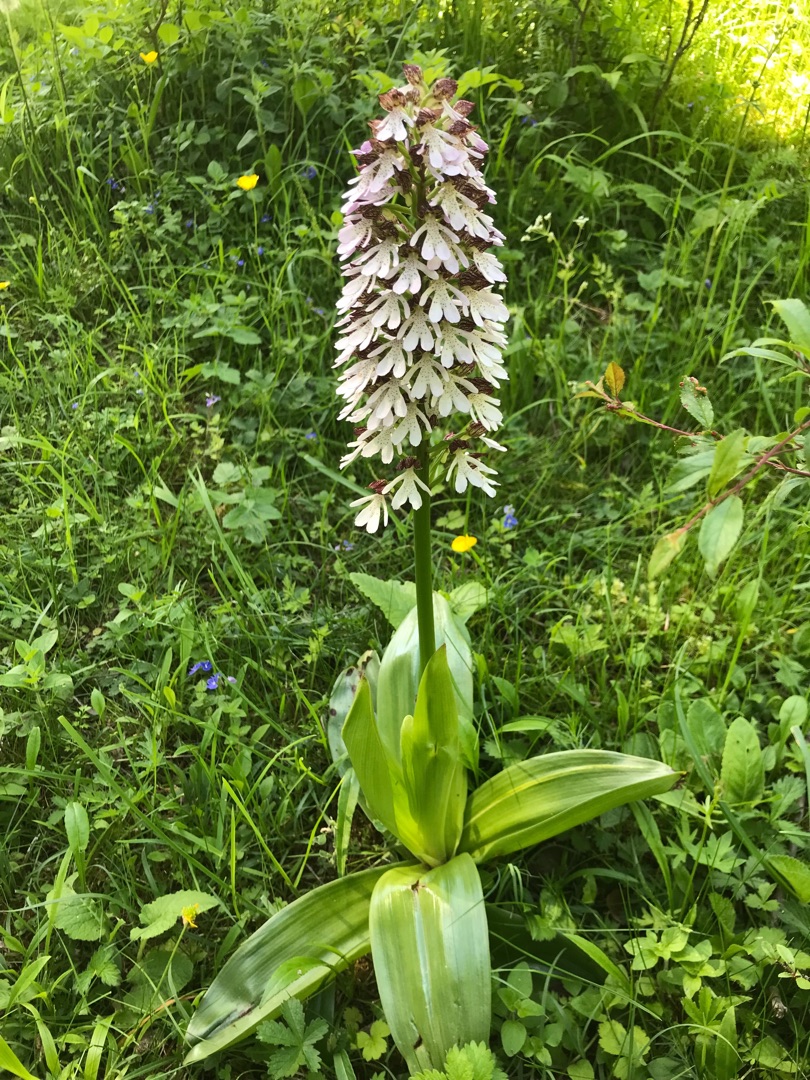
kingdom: Plantae
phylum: Tracheophyta
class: Liliopsida
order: Asparagales
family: Orchidaceae
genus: Orchis
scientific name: Orchis purpurea
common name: Stor gøgeurt
